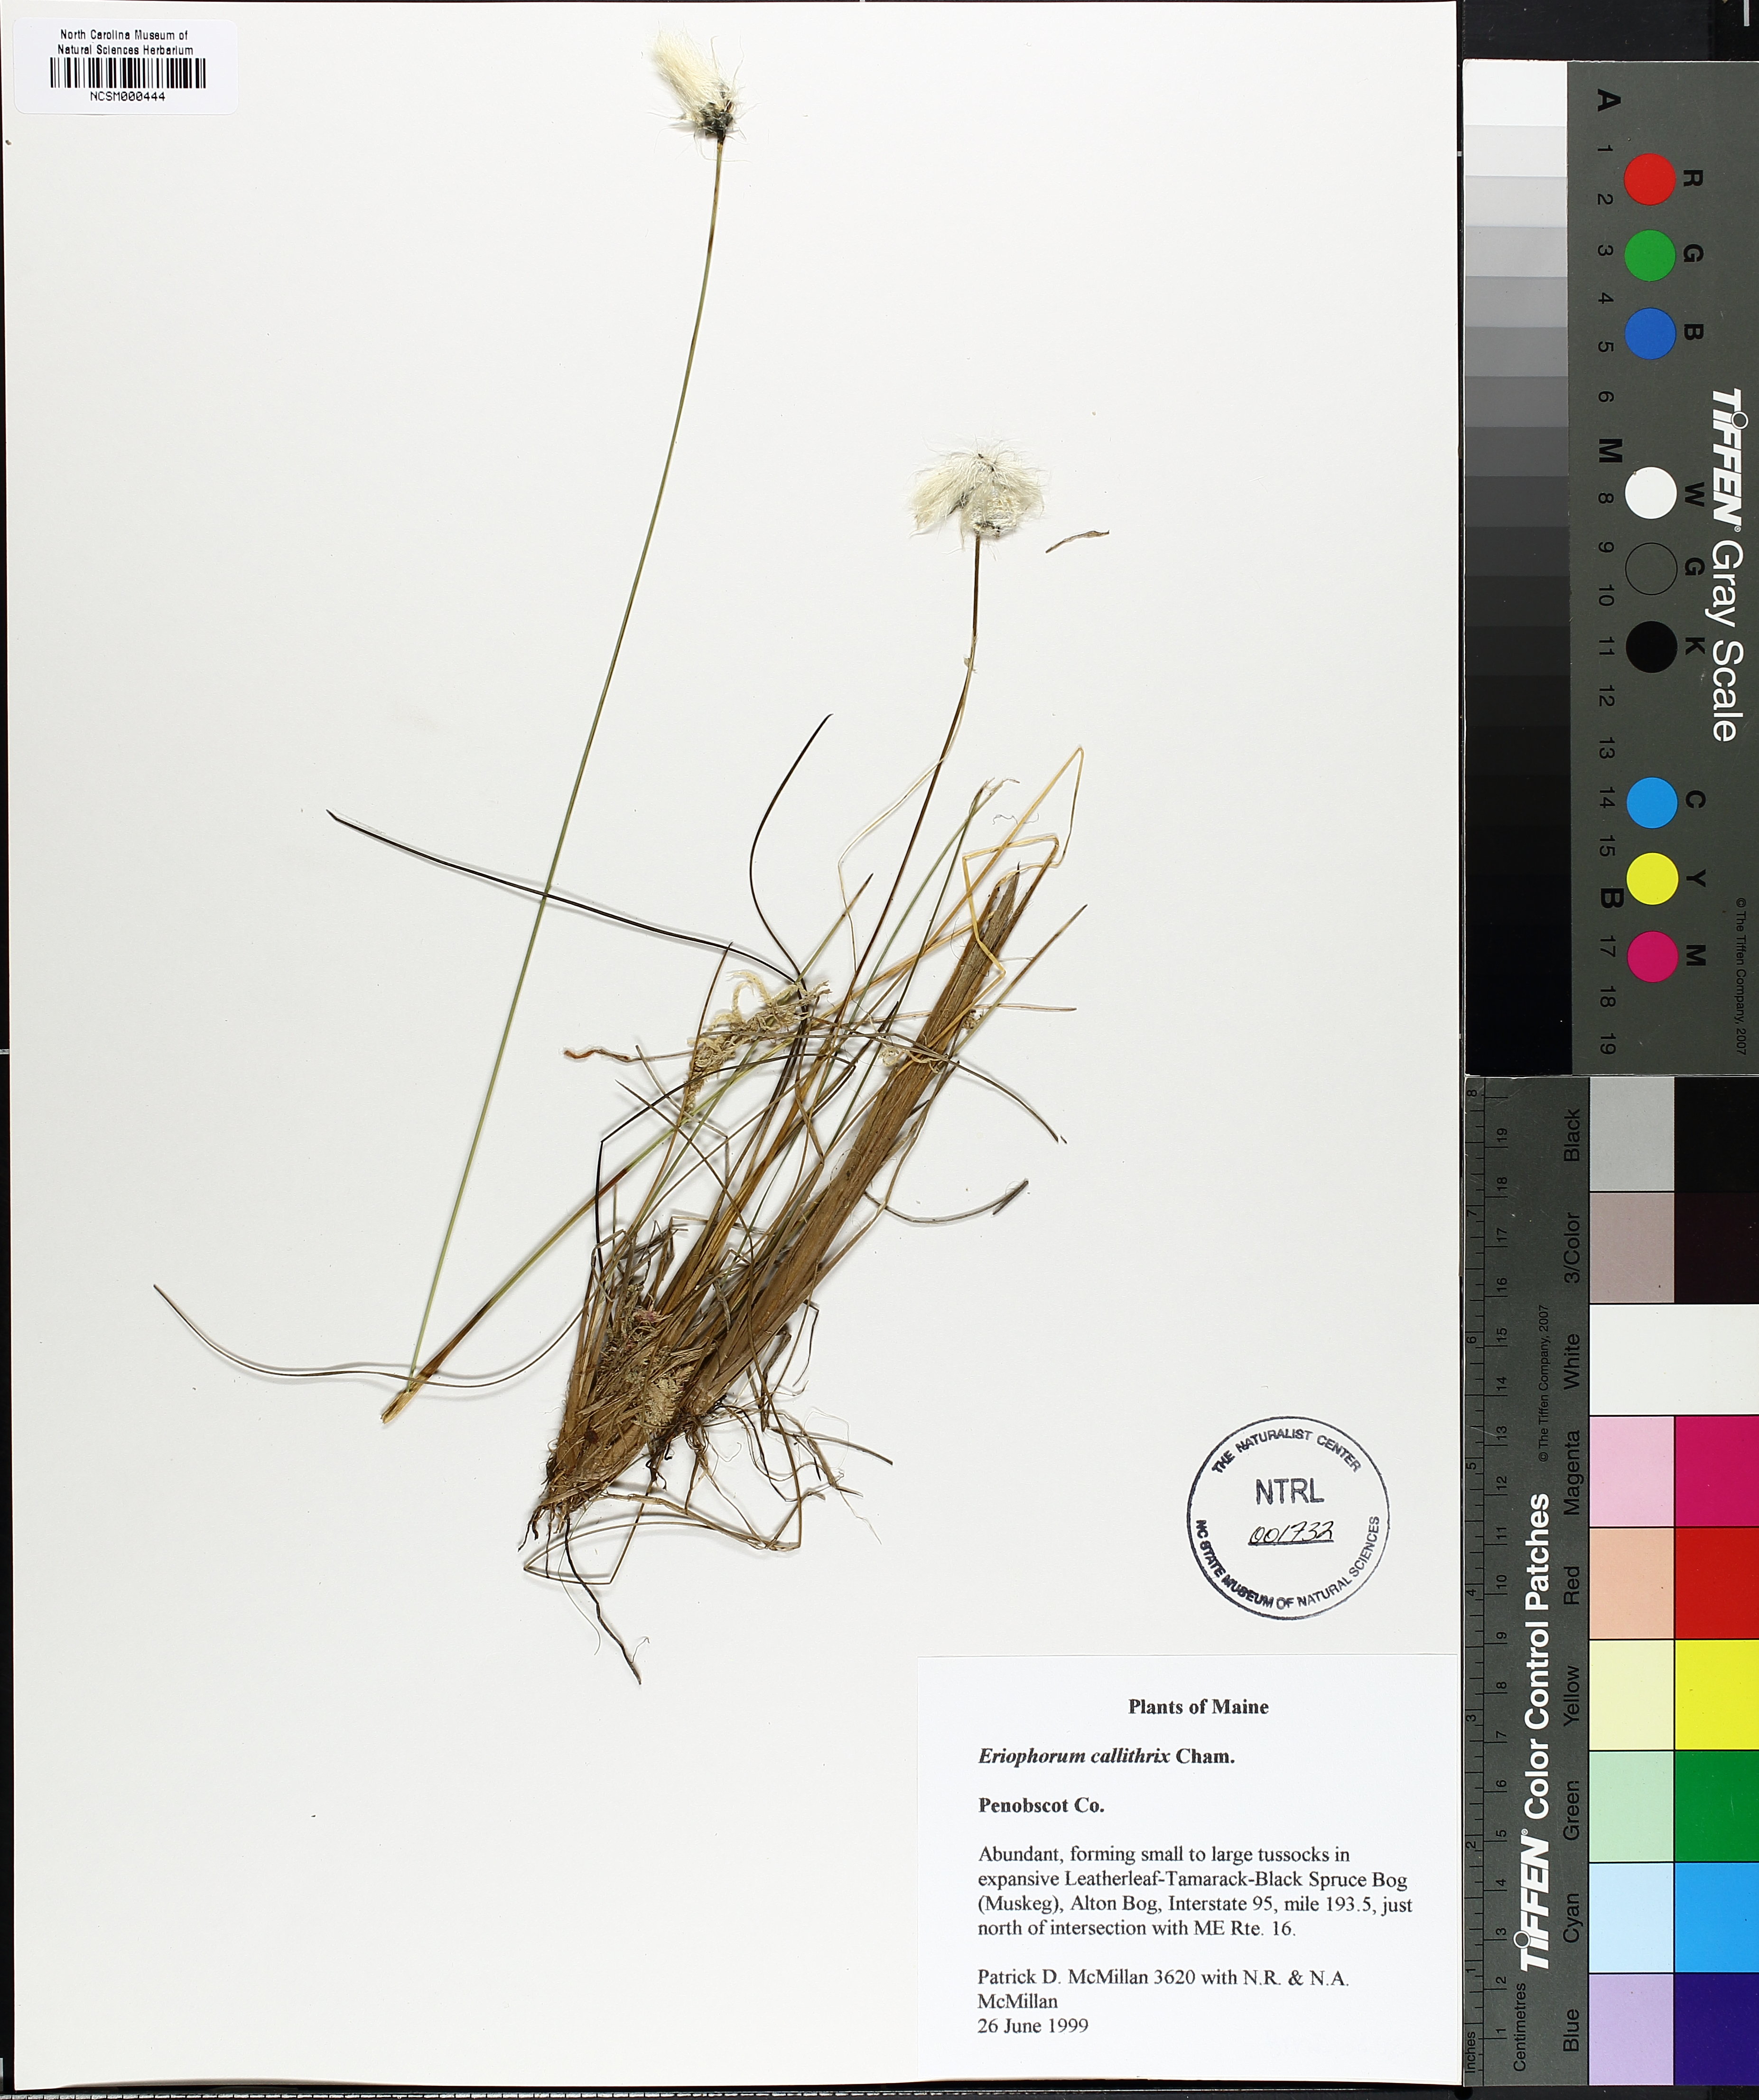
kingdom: Plantae
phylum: Tracheophyta
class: Liliopsida
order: Poales
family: Cyperaceae
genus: Eriophorum
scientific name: Eriophorum callitrix
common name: Arctic cottongrass
